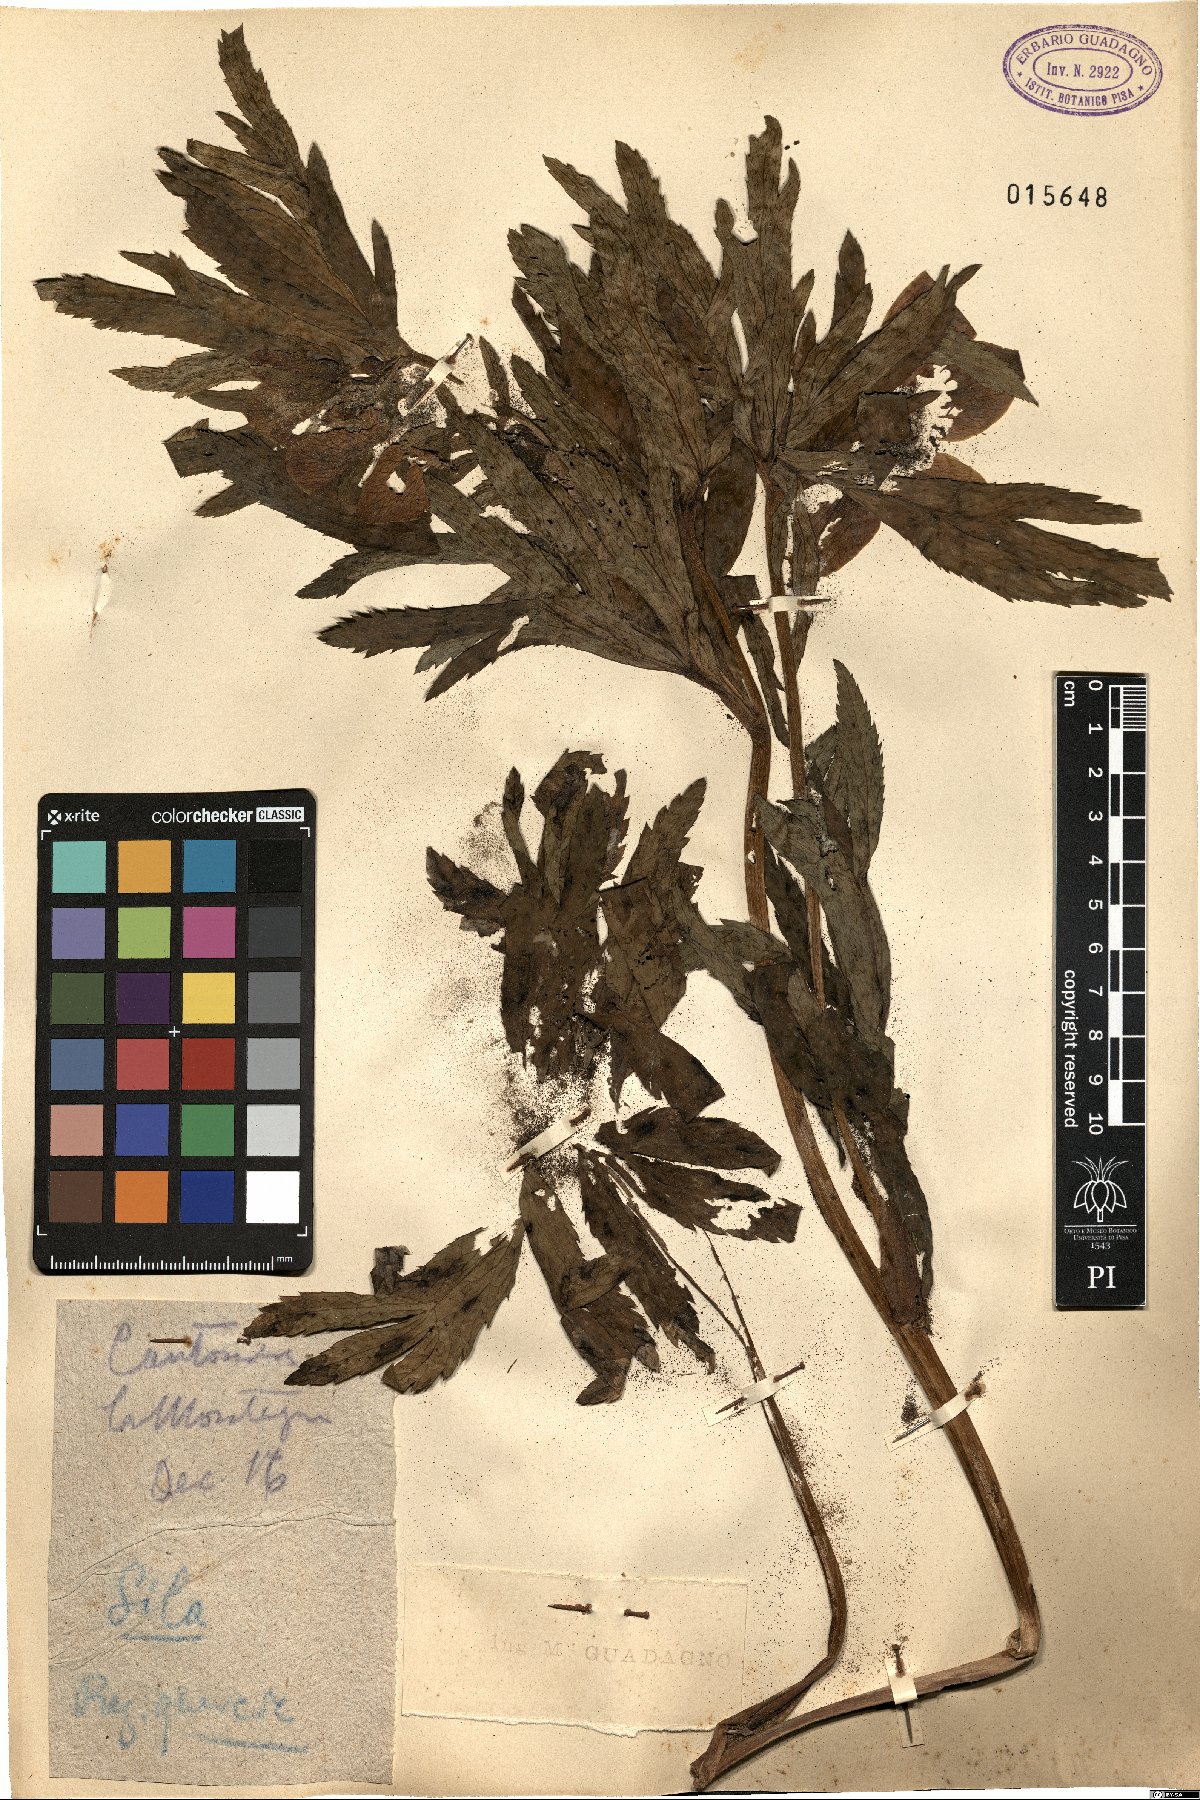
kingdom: Plantae
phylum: Tracheophyta
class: Magnoliopsida
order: Ranunculales
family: Ranunculaceae
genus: Helleborus
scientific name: Helleborus
